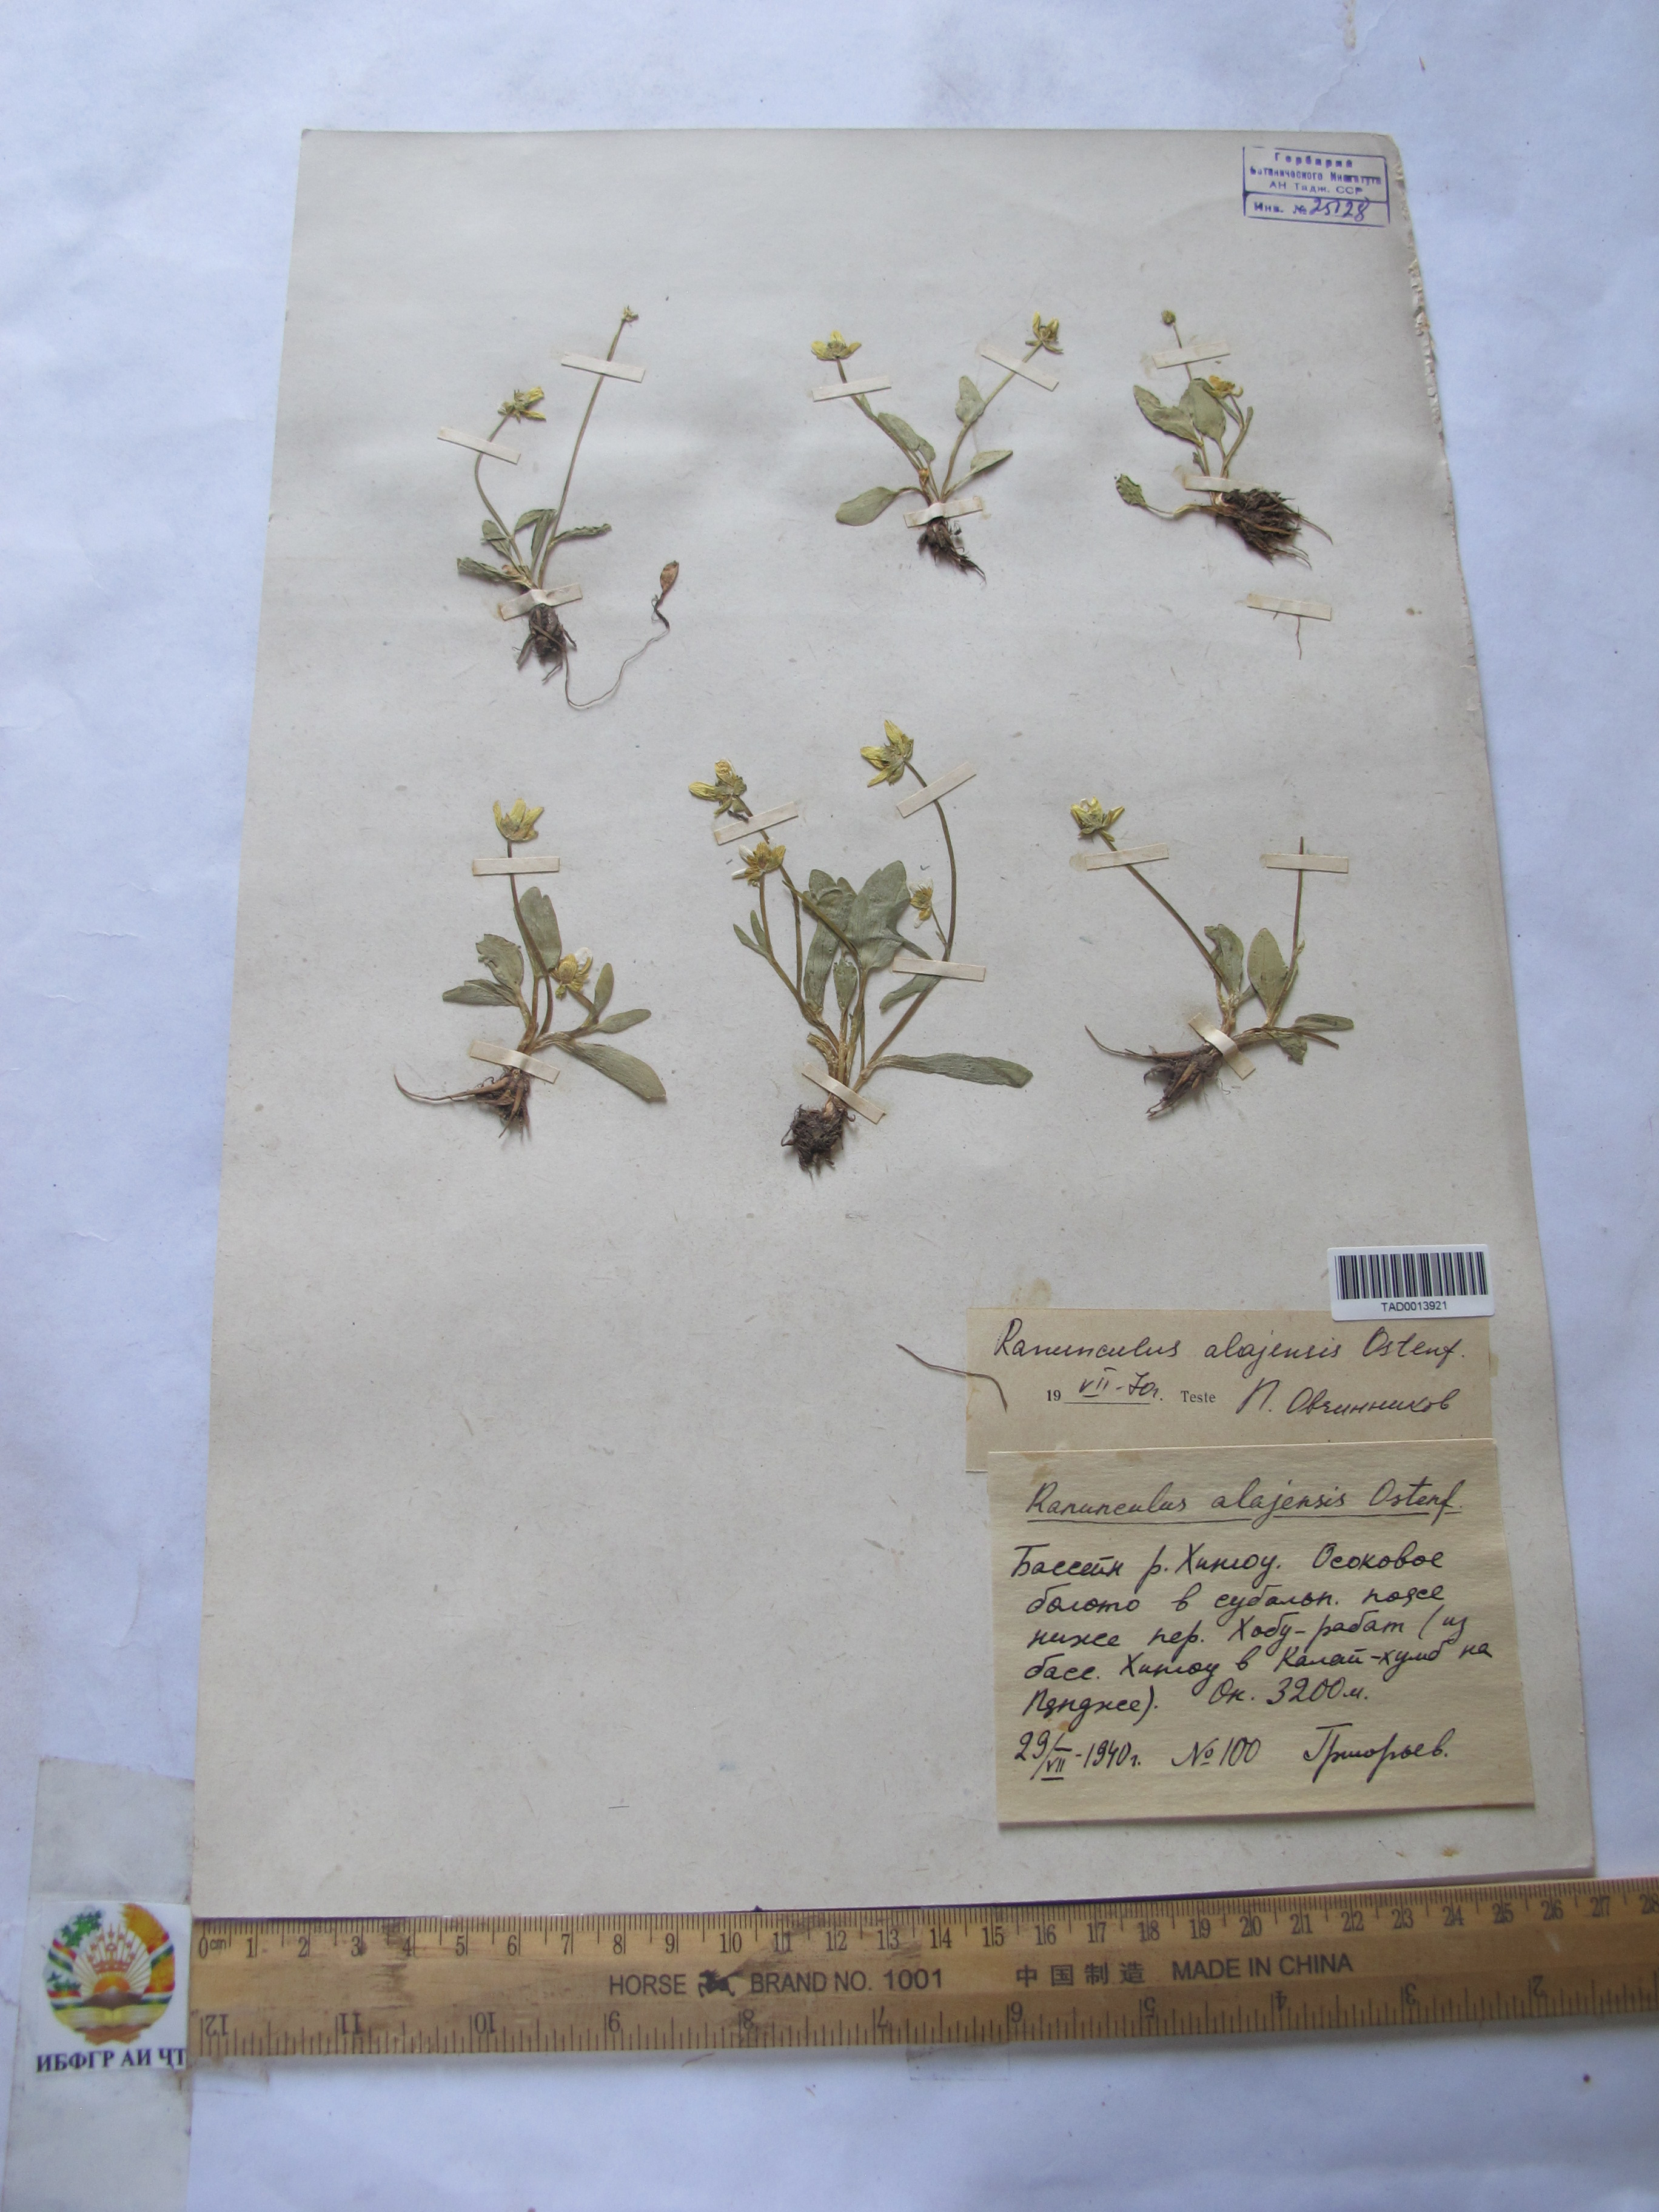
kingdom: Plantae
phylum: Tracheophyta
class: Magnoliopsida
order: Ranunculales
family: Ranunculaceae
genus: Ranunculus
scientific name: Ranunculus alaiensis
